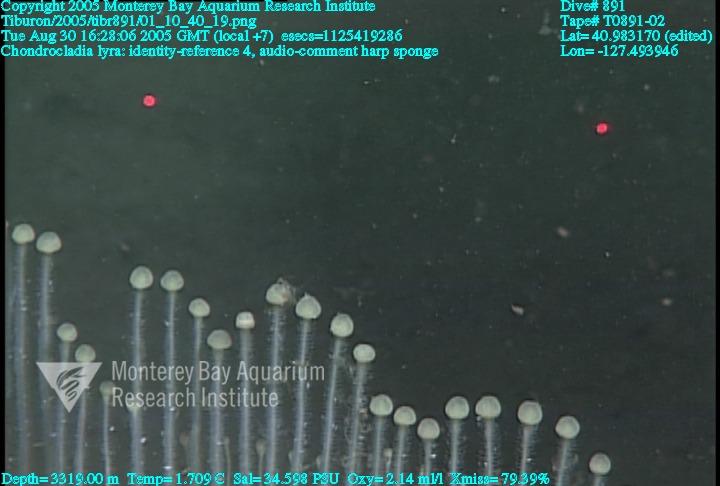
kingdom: Animalia
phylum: Porifera
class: Demospongiae
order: Poecilosclerida
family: Cladorhizidae
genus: Chondrocladia
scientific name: Chondrocladia lyra
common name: Harp sponge
